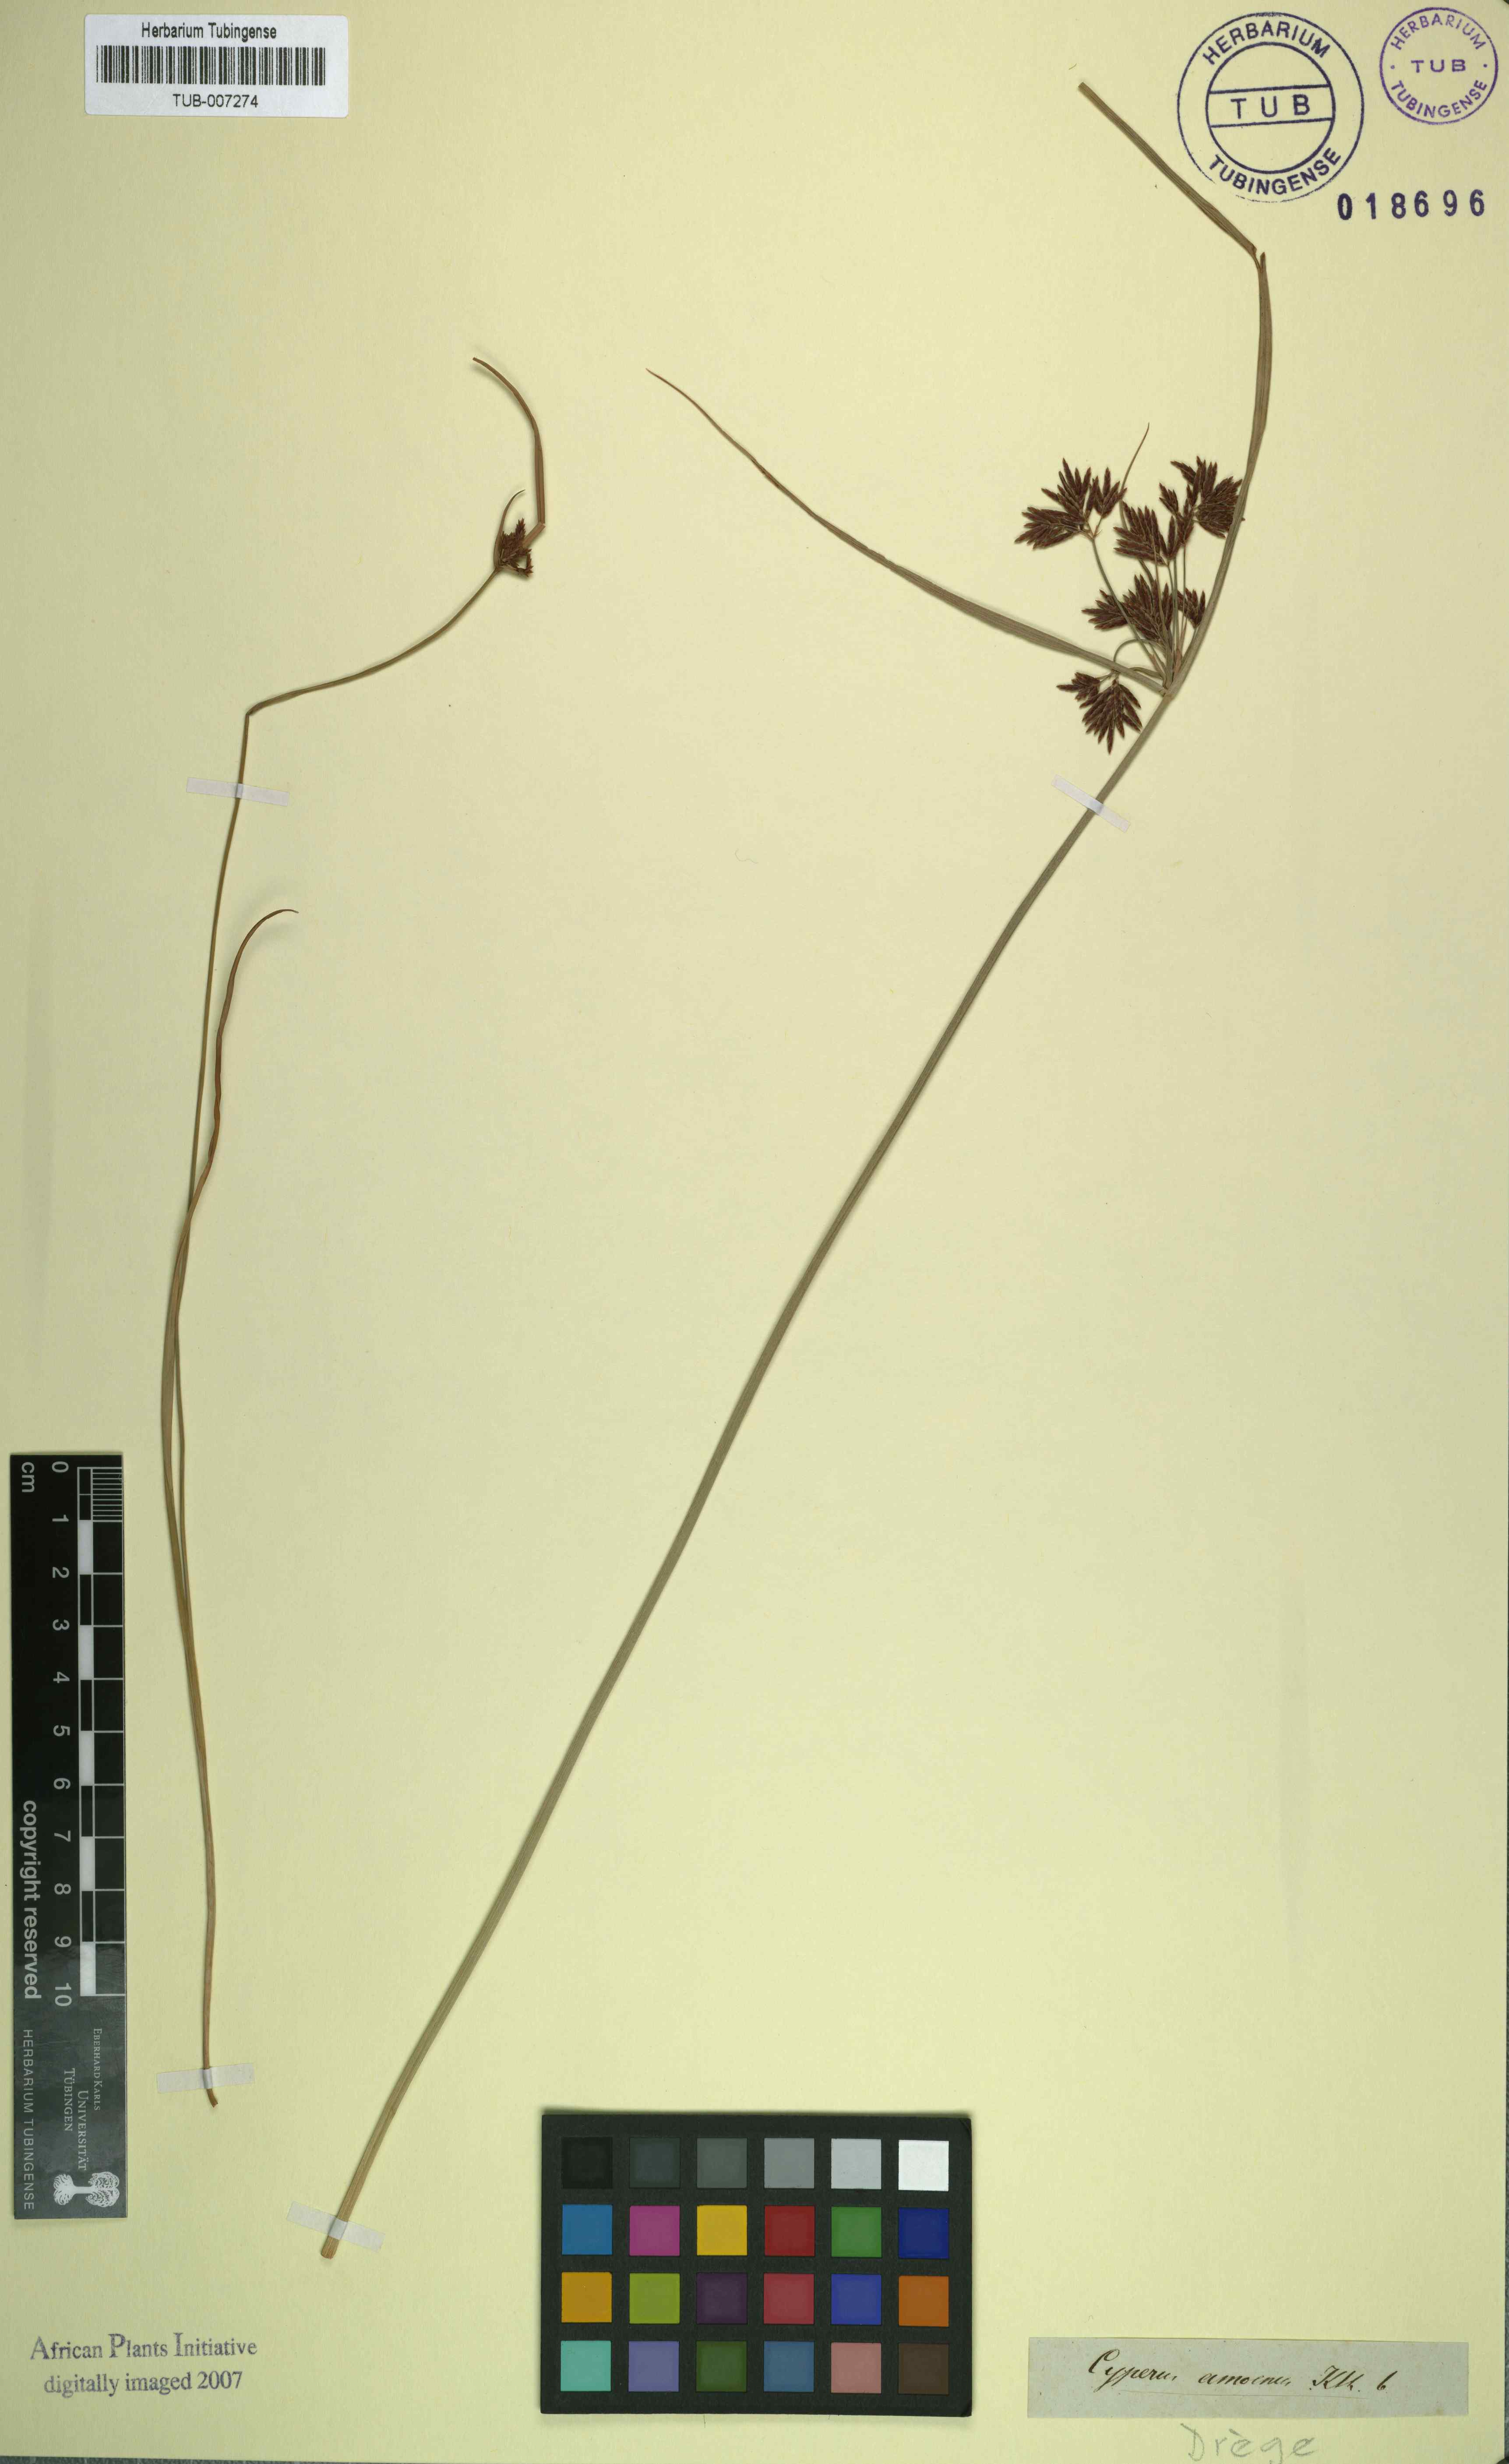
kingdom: Plantae
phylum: Tracheophyta
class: Liliopsida
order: Poales
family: Cyperaceae
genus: Cyperus
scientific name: Cyperus longus
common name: Galingale
